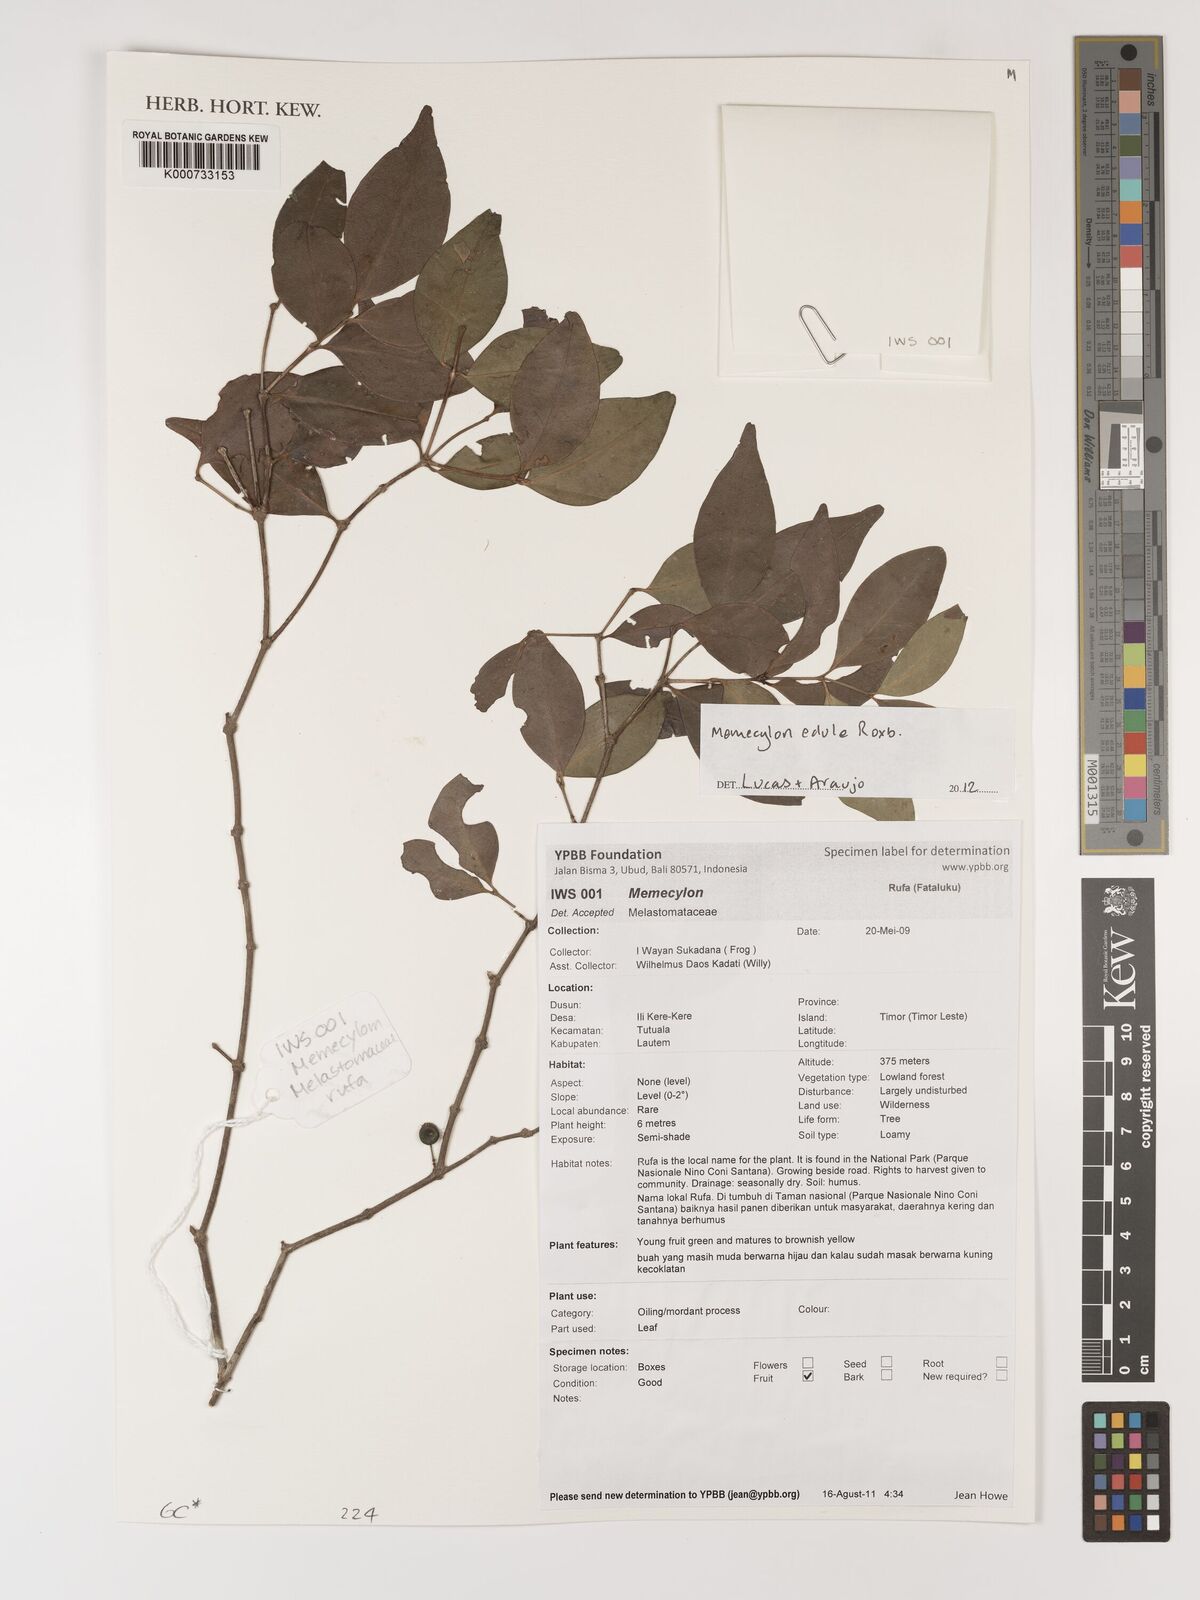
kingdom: Plantae
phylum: Tracheophyta
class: Magnoliopsida
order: Myrtales
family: Melastomataceae
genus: Memecylon
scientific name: Memecylon edule
